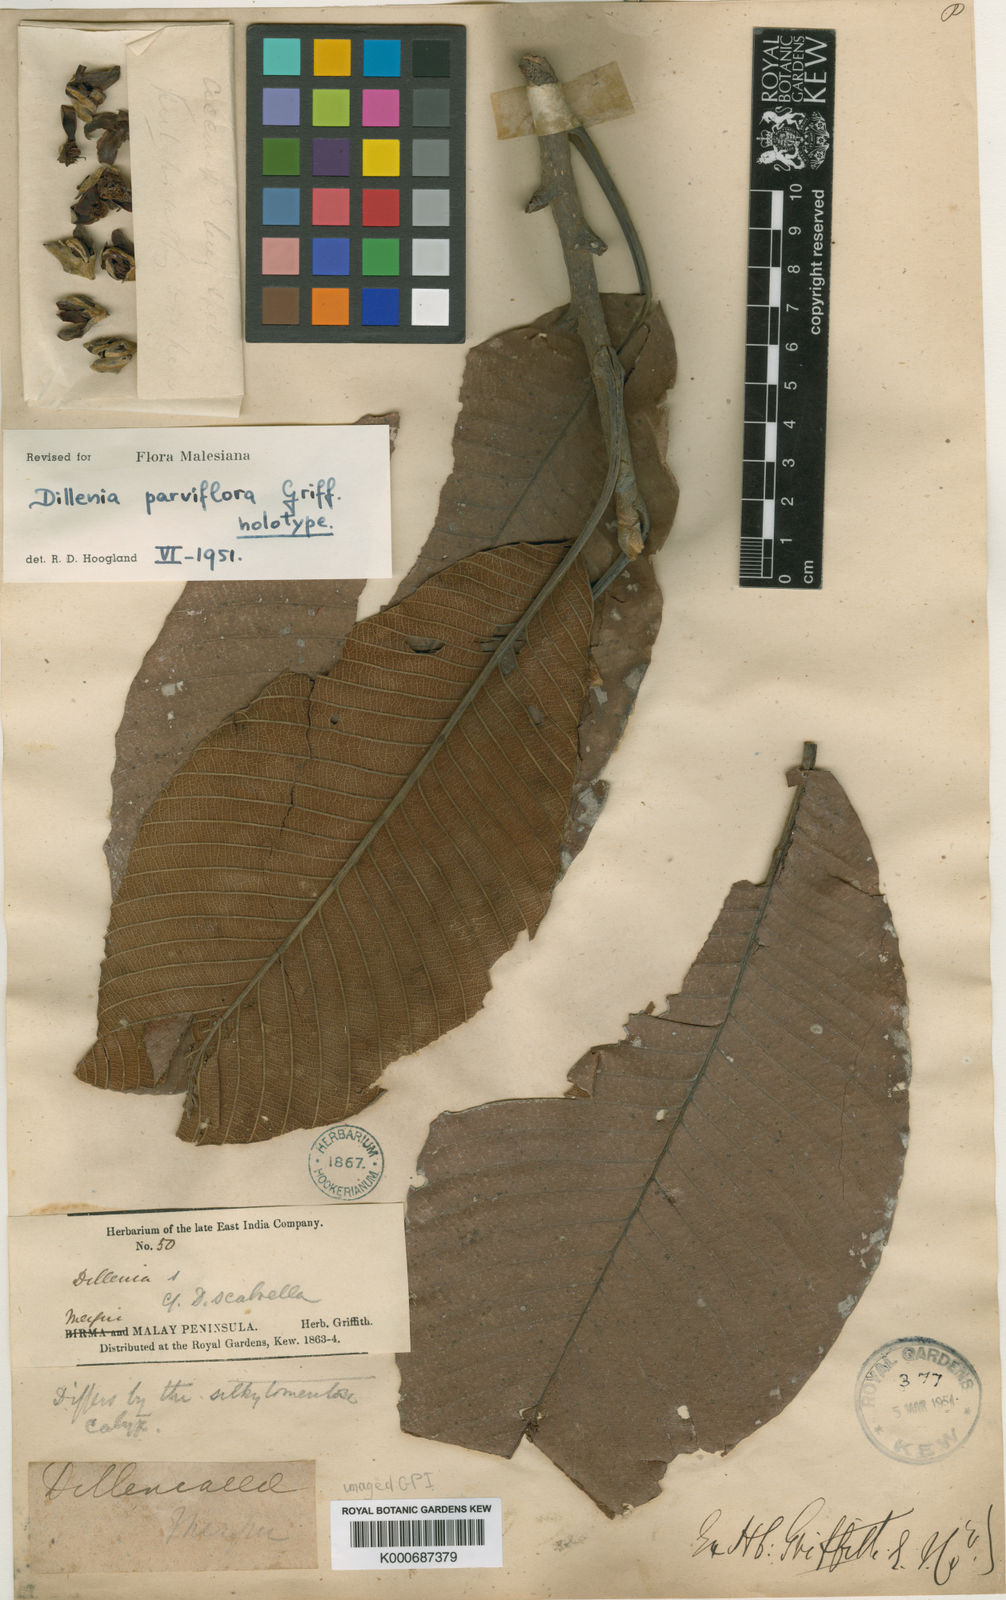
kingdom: Plantae
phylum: Tracheophyta
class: Magnoliopsida
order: Dilleniales
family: Dilleniaceae
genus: Dillenia
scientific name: Dillenia parviflora
